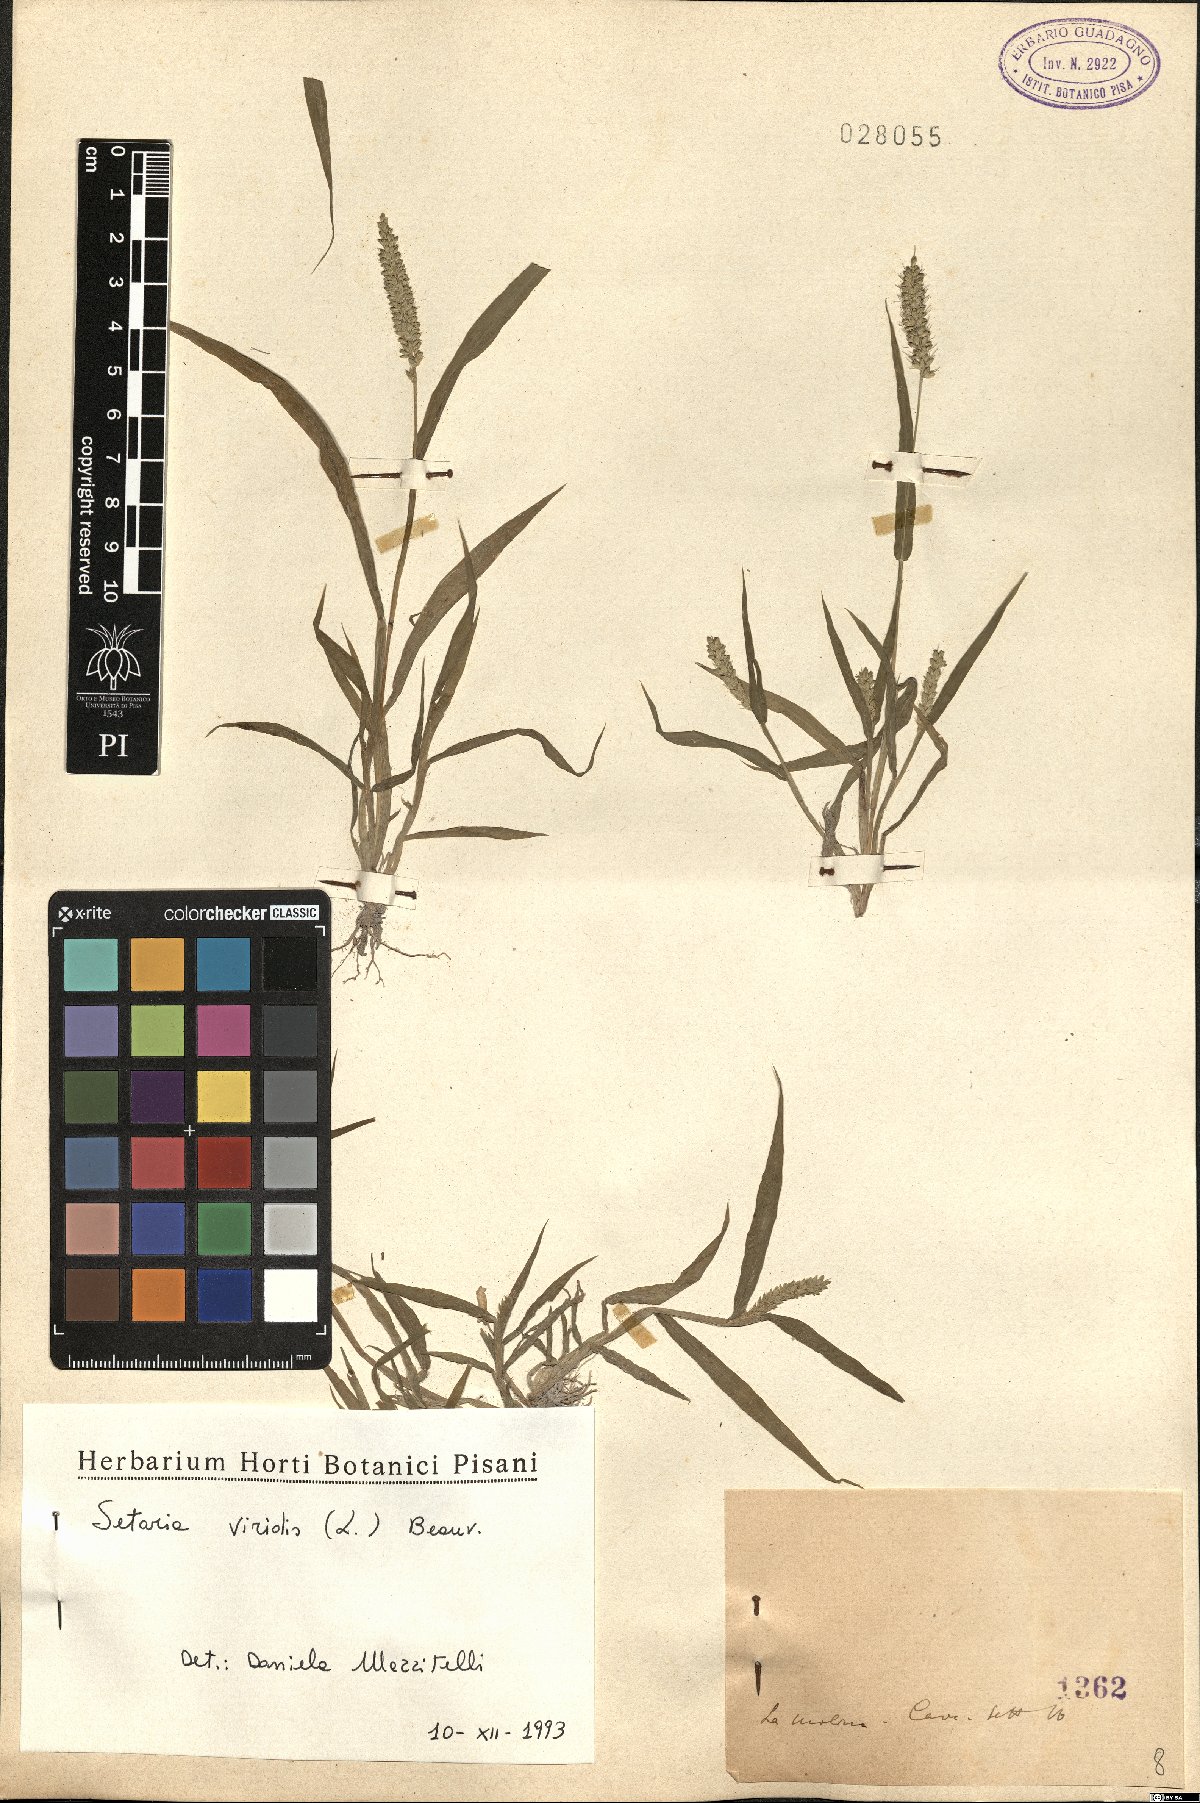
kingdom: Plantae
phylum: Tracheophyta
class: Liliopsida
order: Poales
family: Poaceae
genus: Setaria
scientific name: Setaria viridis
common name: Green bristlegrass
